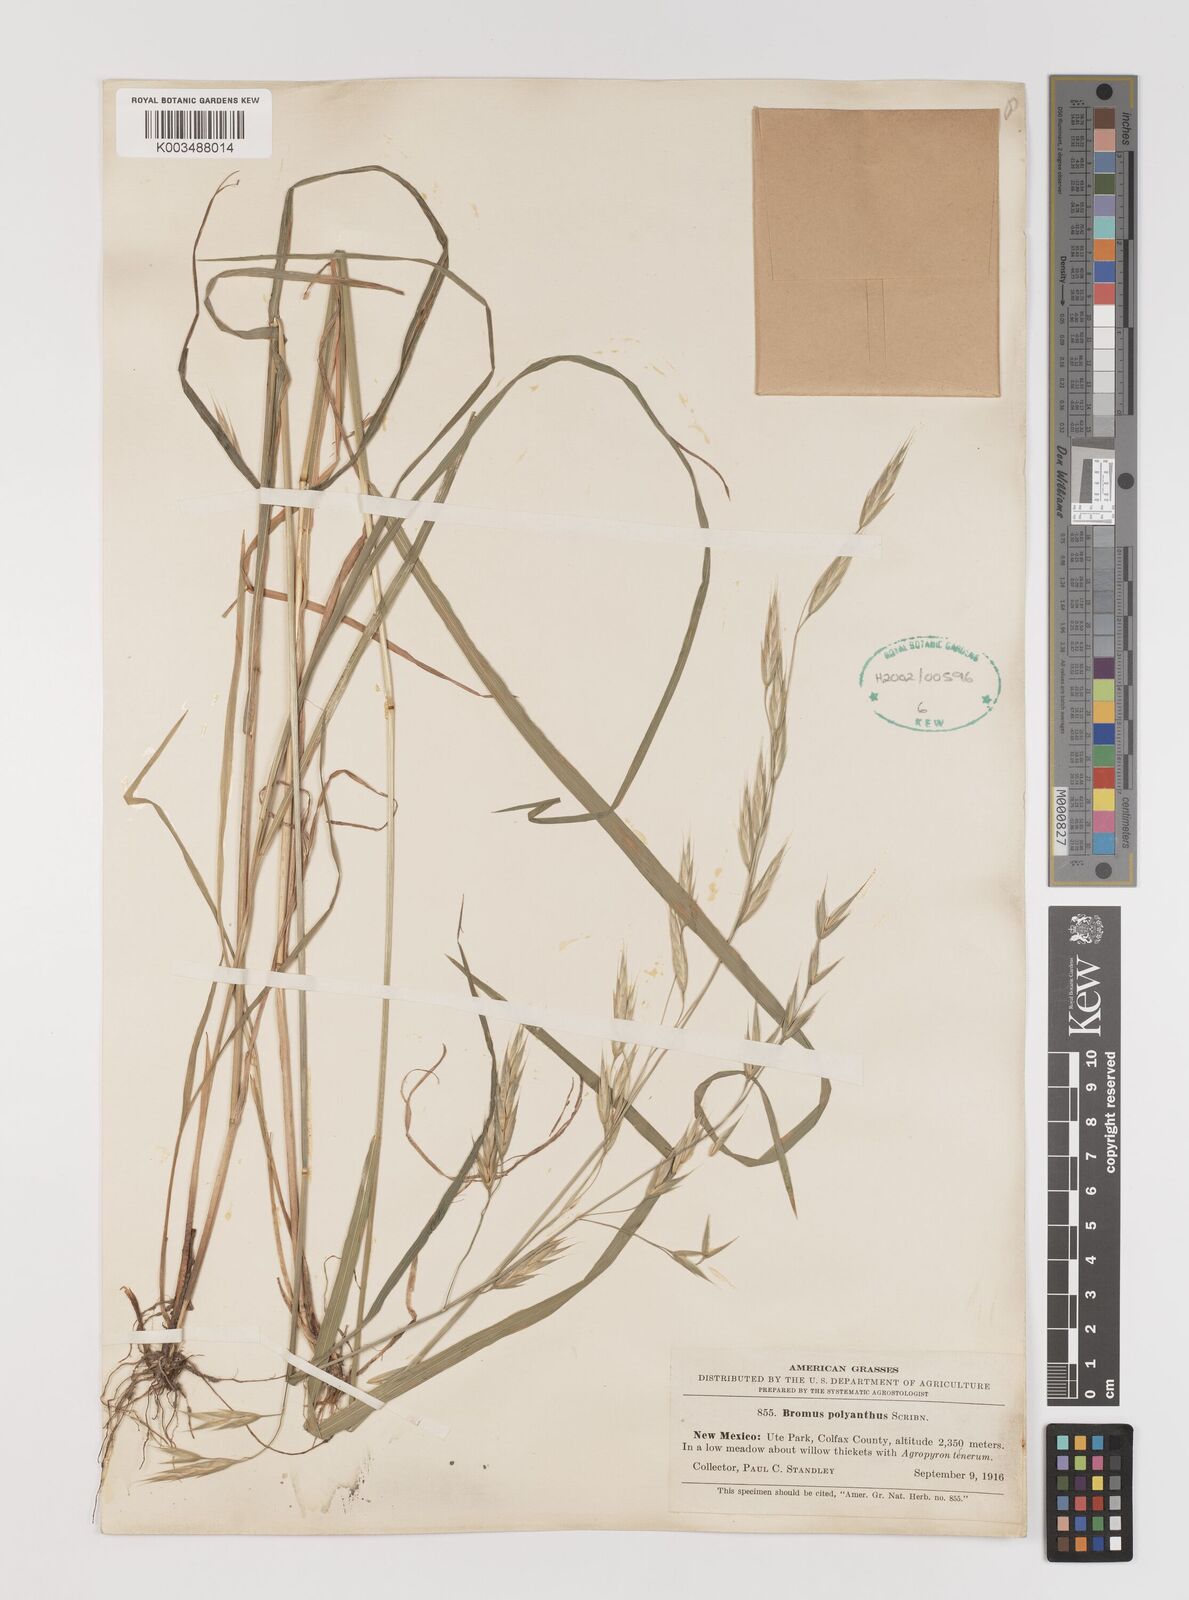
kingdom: Plantae
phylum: Tracheophyta
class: Liliopsida
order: Poales
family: Poaceae
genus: Bromus
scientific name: Bromus polyanthus
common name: Great basin brome
